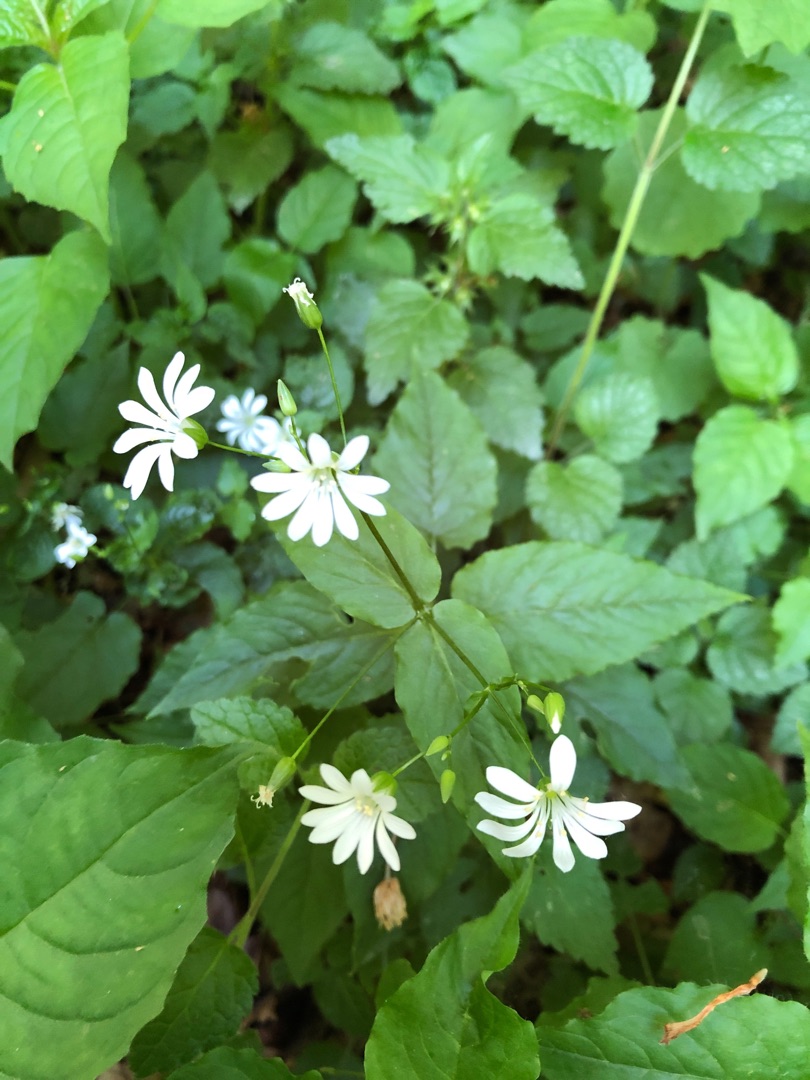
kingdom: Plantae
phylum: Tracheophyta
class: Magnoliopsida
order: Caryophyllales
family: Caryophyllaceae
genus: Stellaria
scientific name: Stellaria glochidisperma
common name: Sydlig lund-fladstjerne
